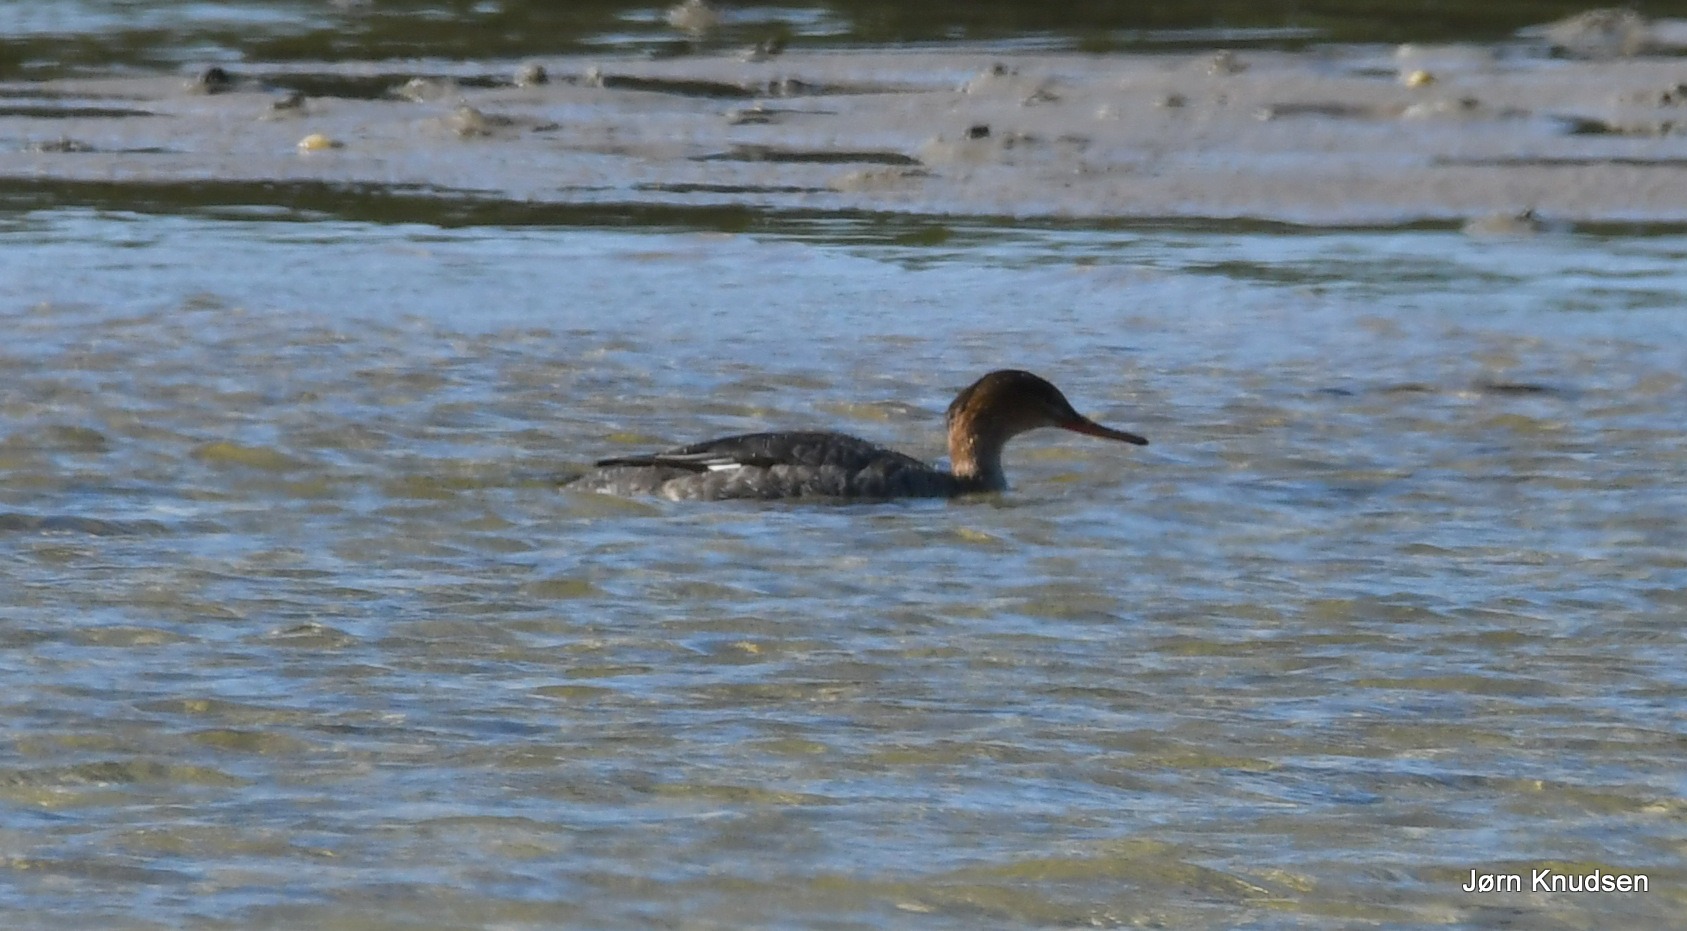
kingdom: Animalia
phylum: Chordata
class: Aves
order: Anseriformes
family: Anatidae
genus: Mergus
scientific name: Mergus serrator
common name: Toppet skallesluger
